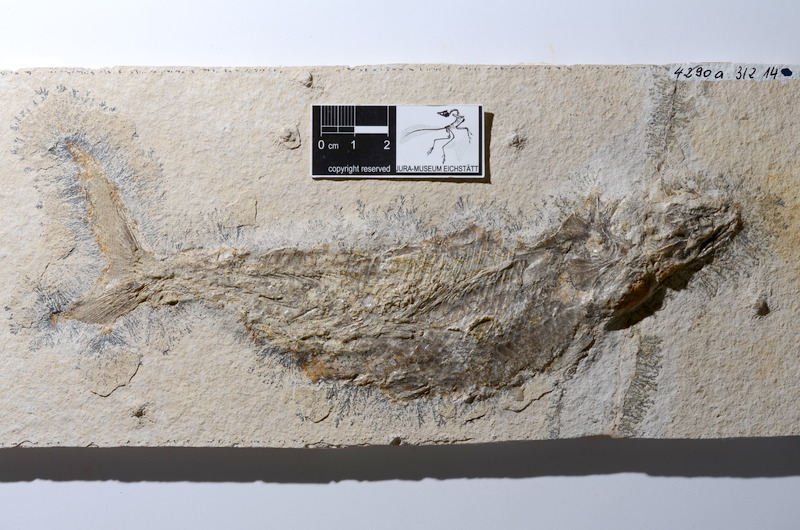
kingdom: Animalia
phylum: Chordata
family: Ankylophoridae
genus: Siemensichthys
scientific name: Siemensichthys macrocephalus
